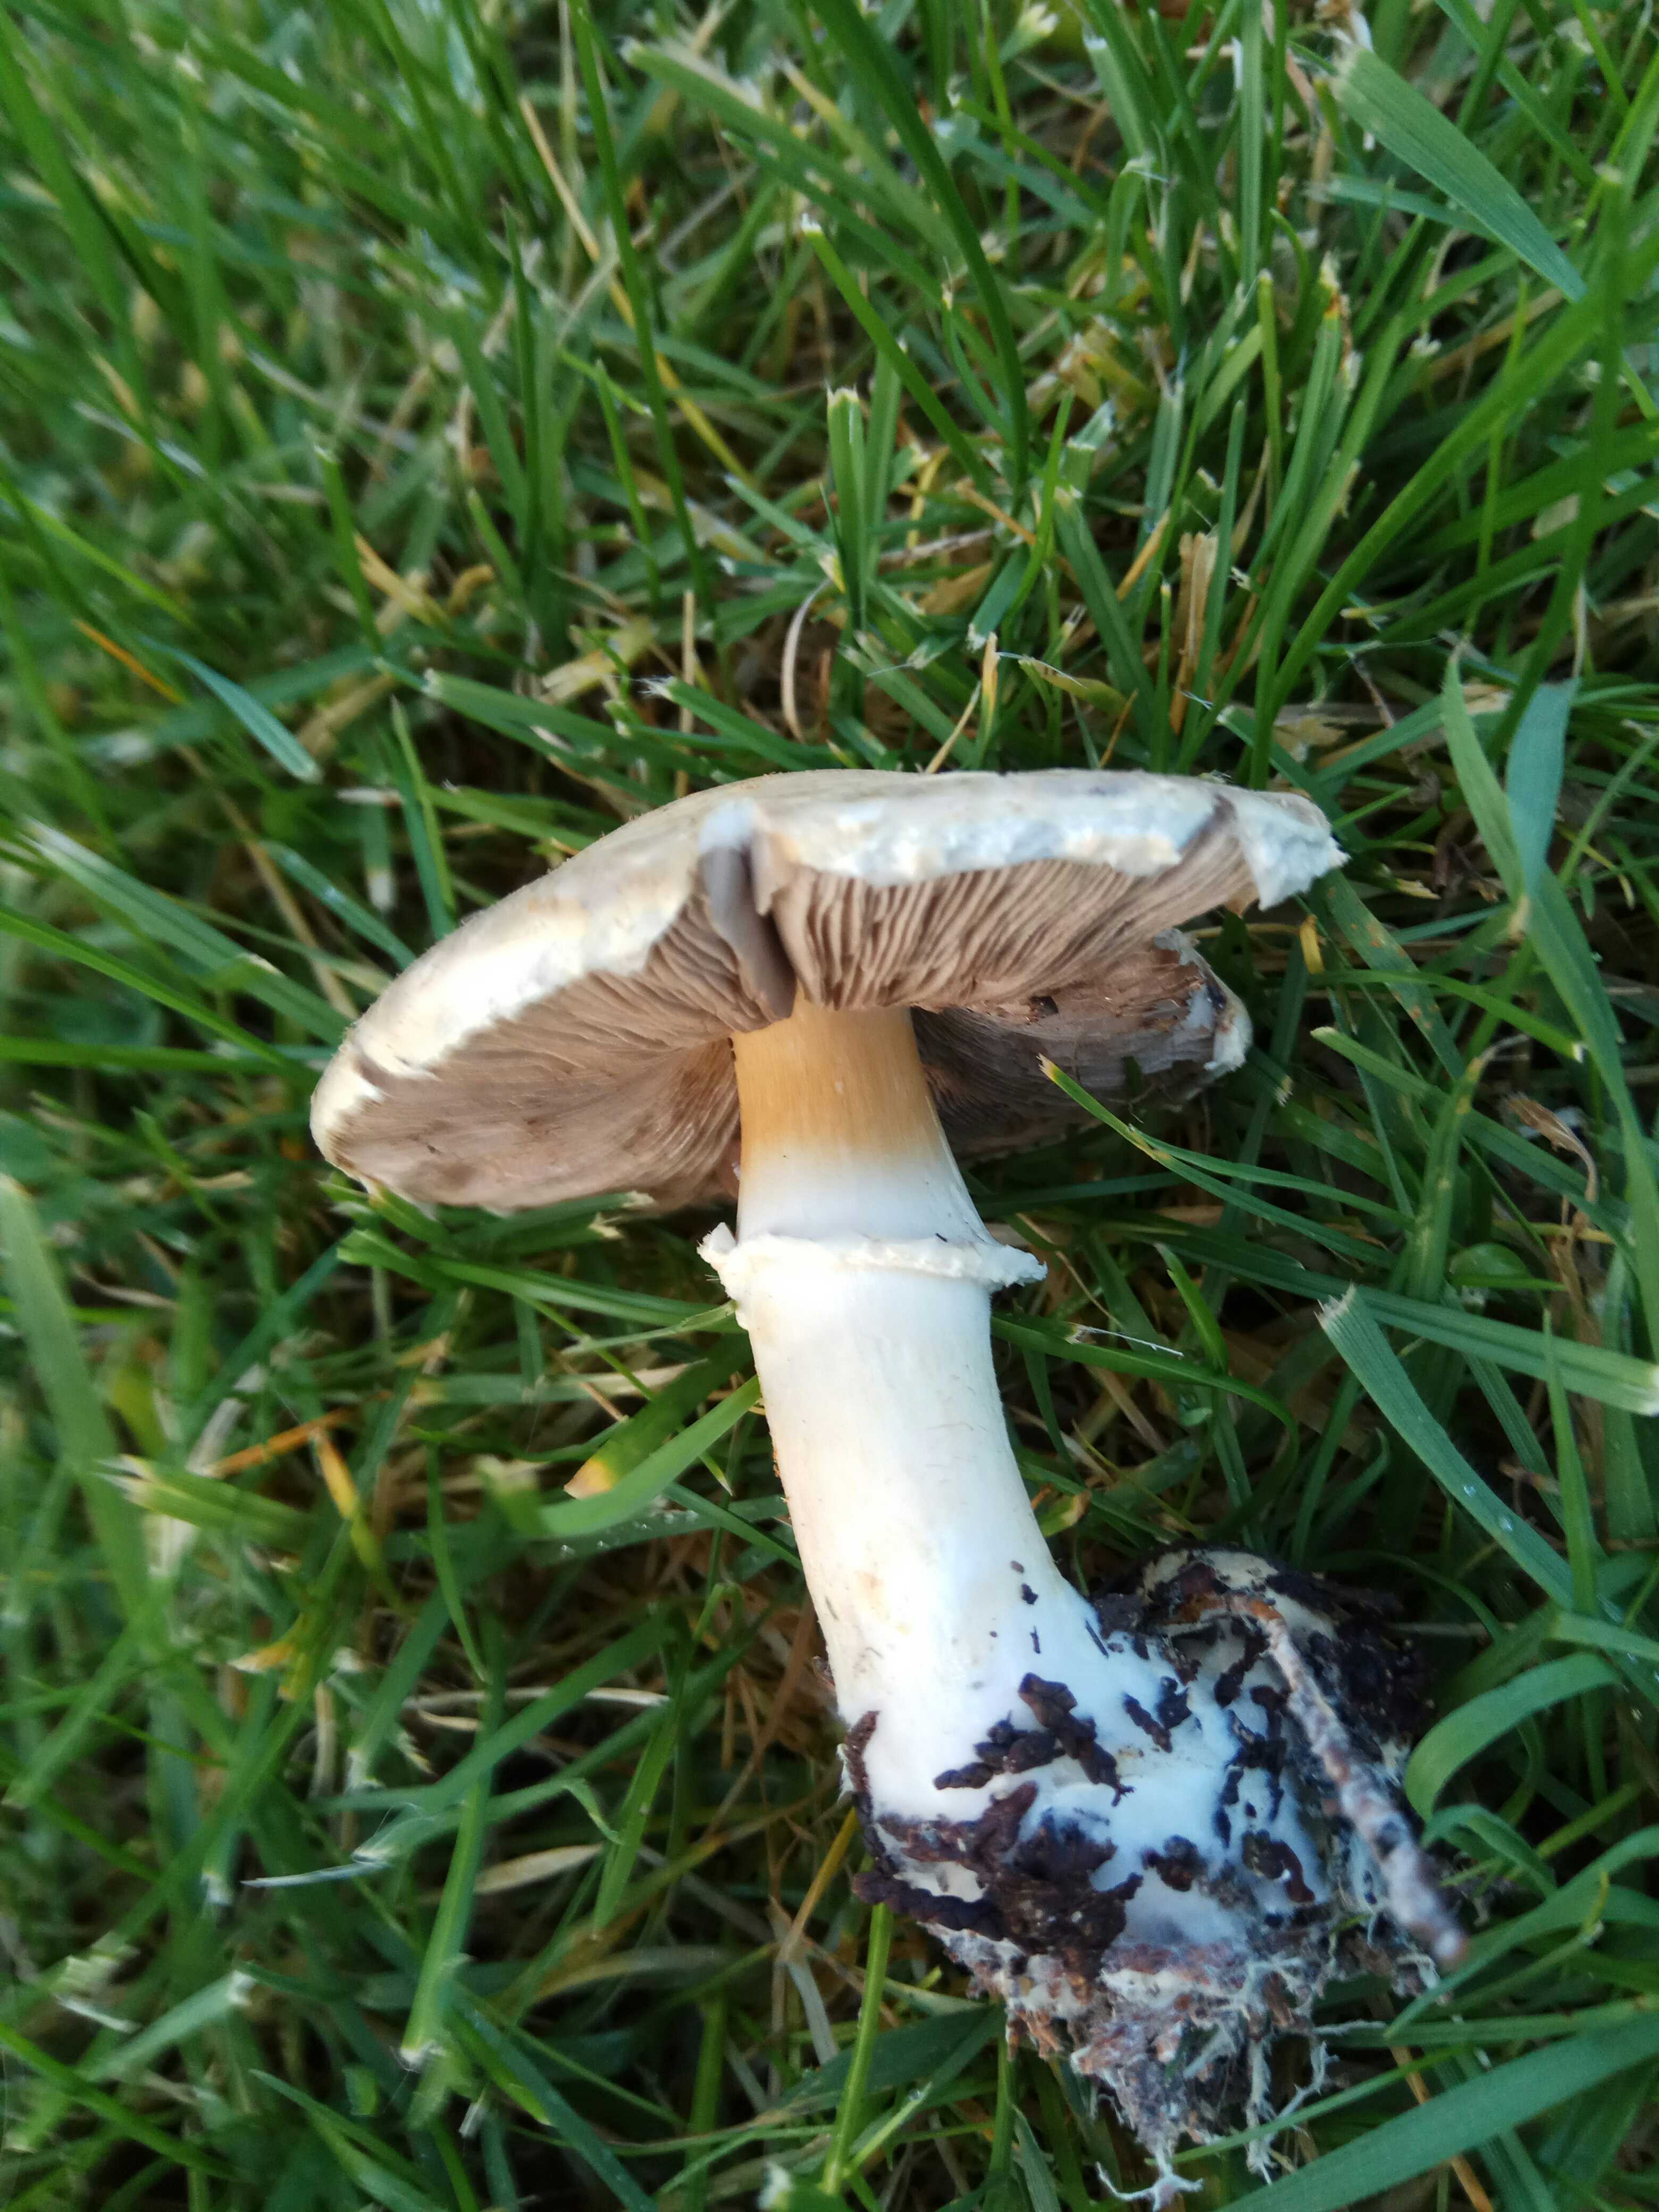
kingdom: Fungi
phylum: Basidiomycota
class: Agaricomycetes
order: Agaricales
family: Agaricaceae
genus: Agaricus
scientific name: Agaricus
